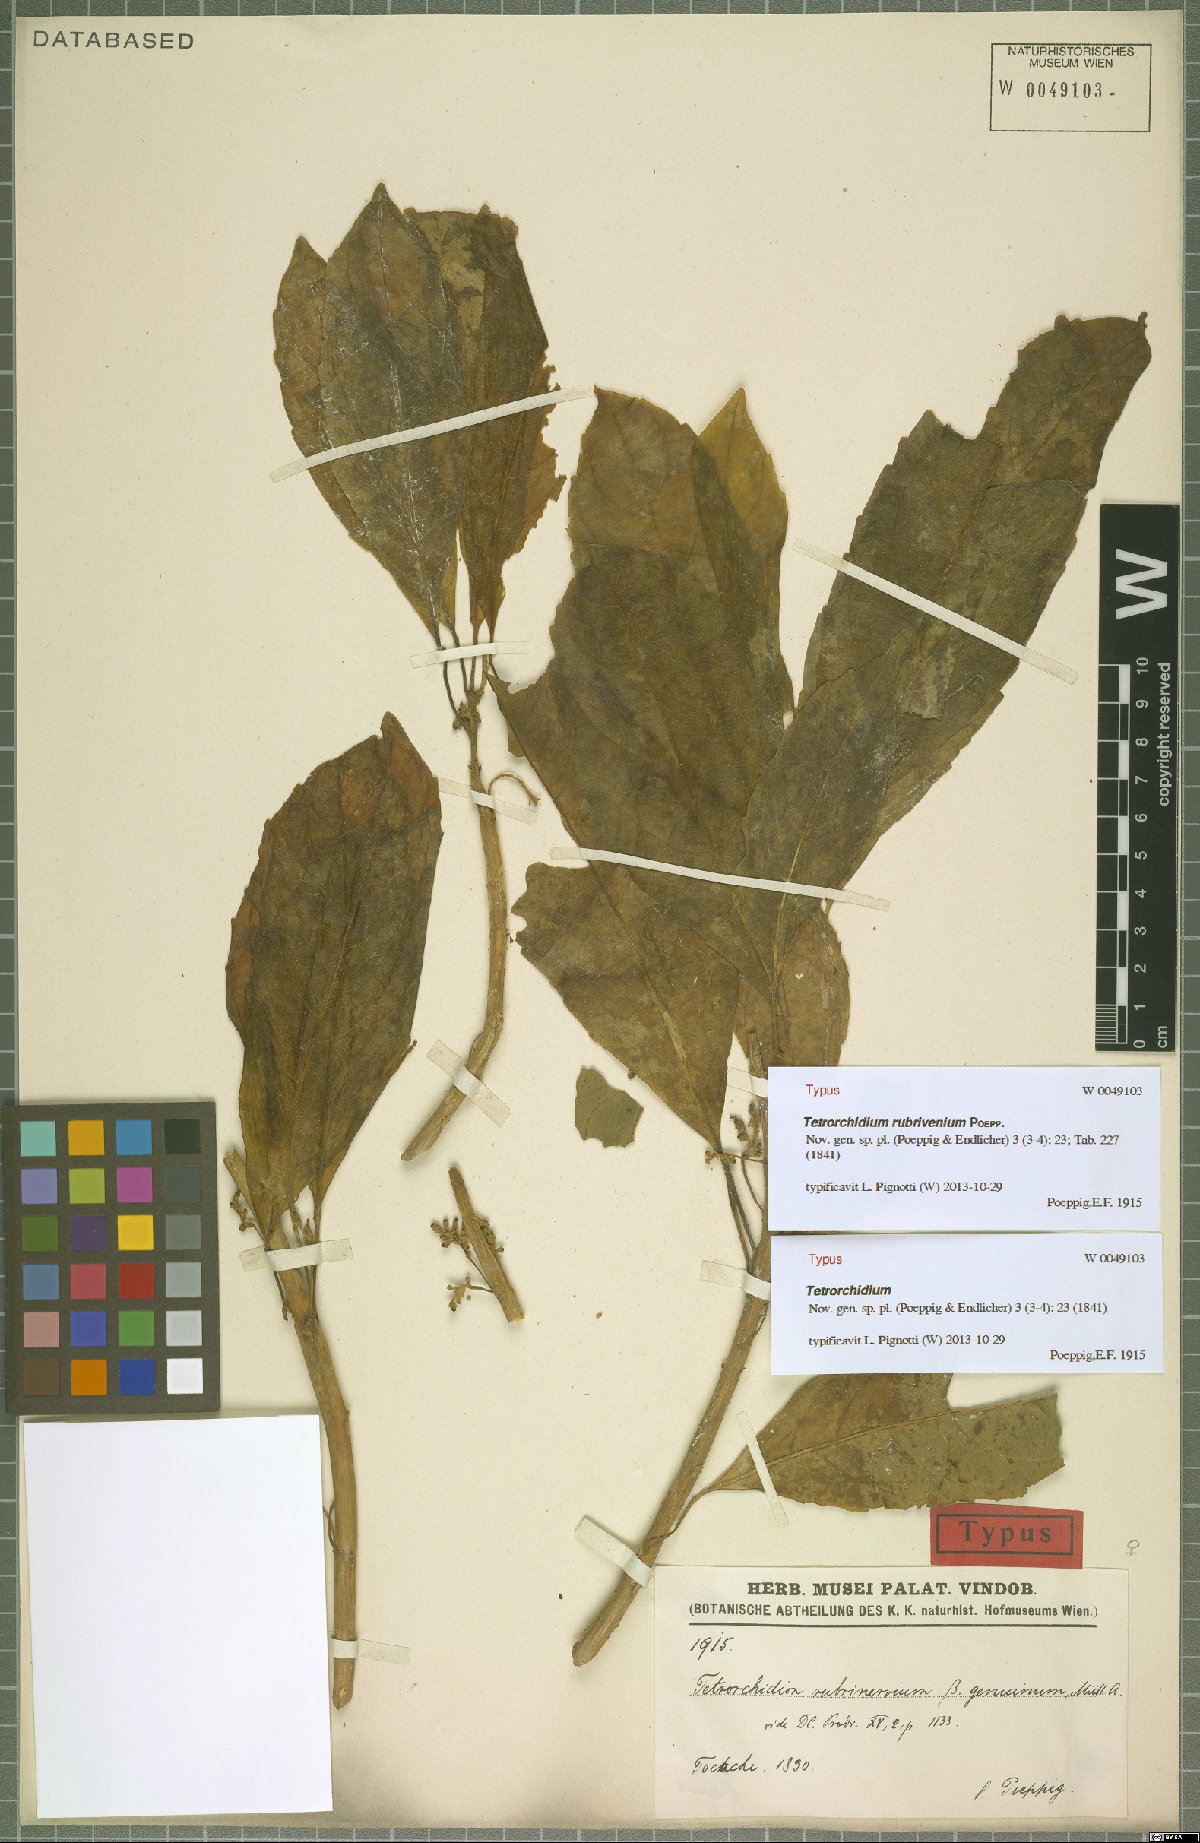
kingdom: Plantae
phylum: Tracheophyta
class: Magnoliopsida
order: Malpighiales
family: Euphorbiaceae
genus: Tetrorchidium
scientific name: Tetrorchidium rubrivenium
